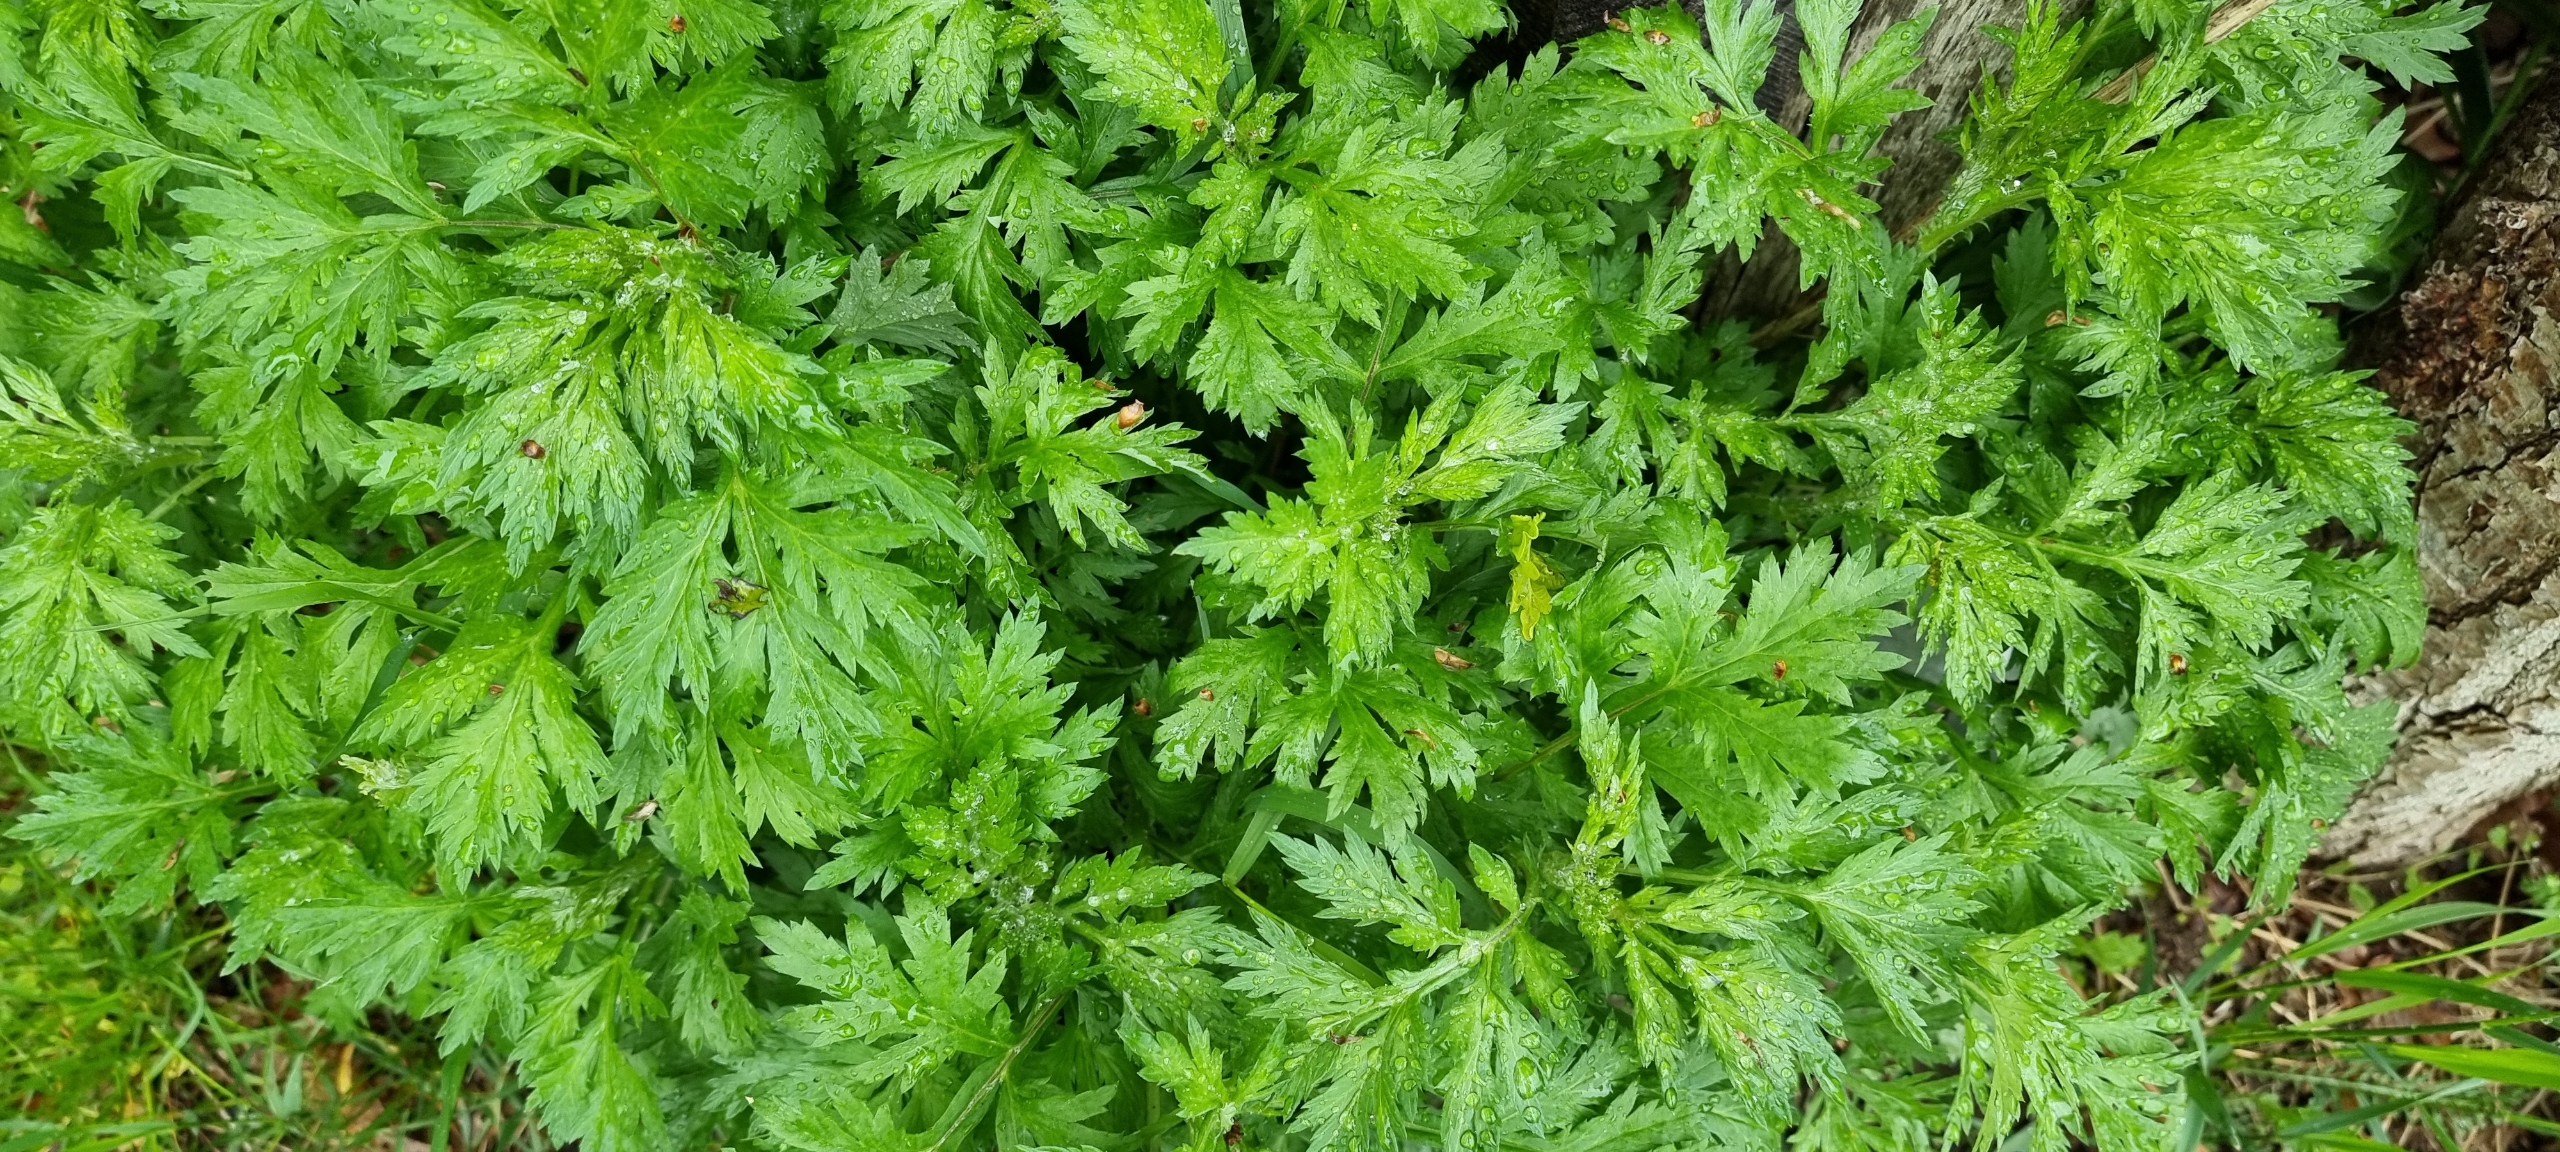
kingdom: Plantae
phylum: Tracheophyta
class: Magnoliopsida
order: Asterales
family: Asteraceae
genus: Artemisia
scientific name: Artemisia vulgaris
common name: Grå-bynke
